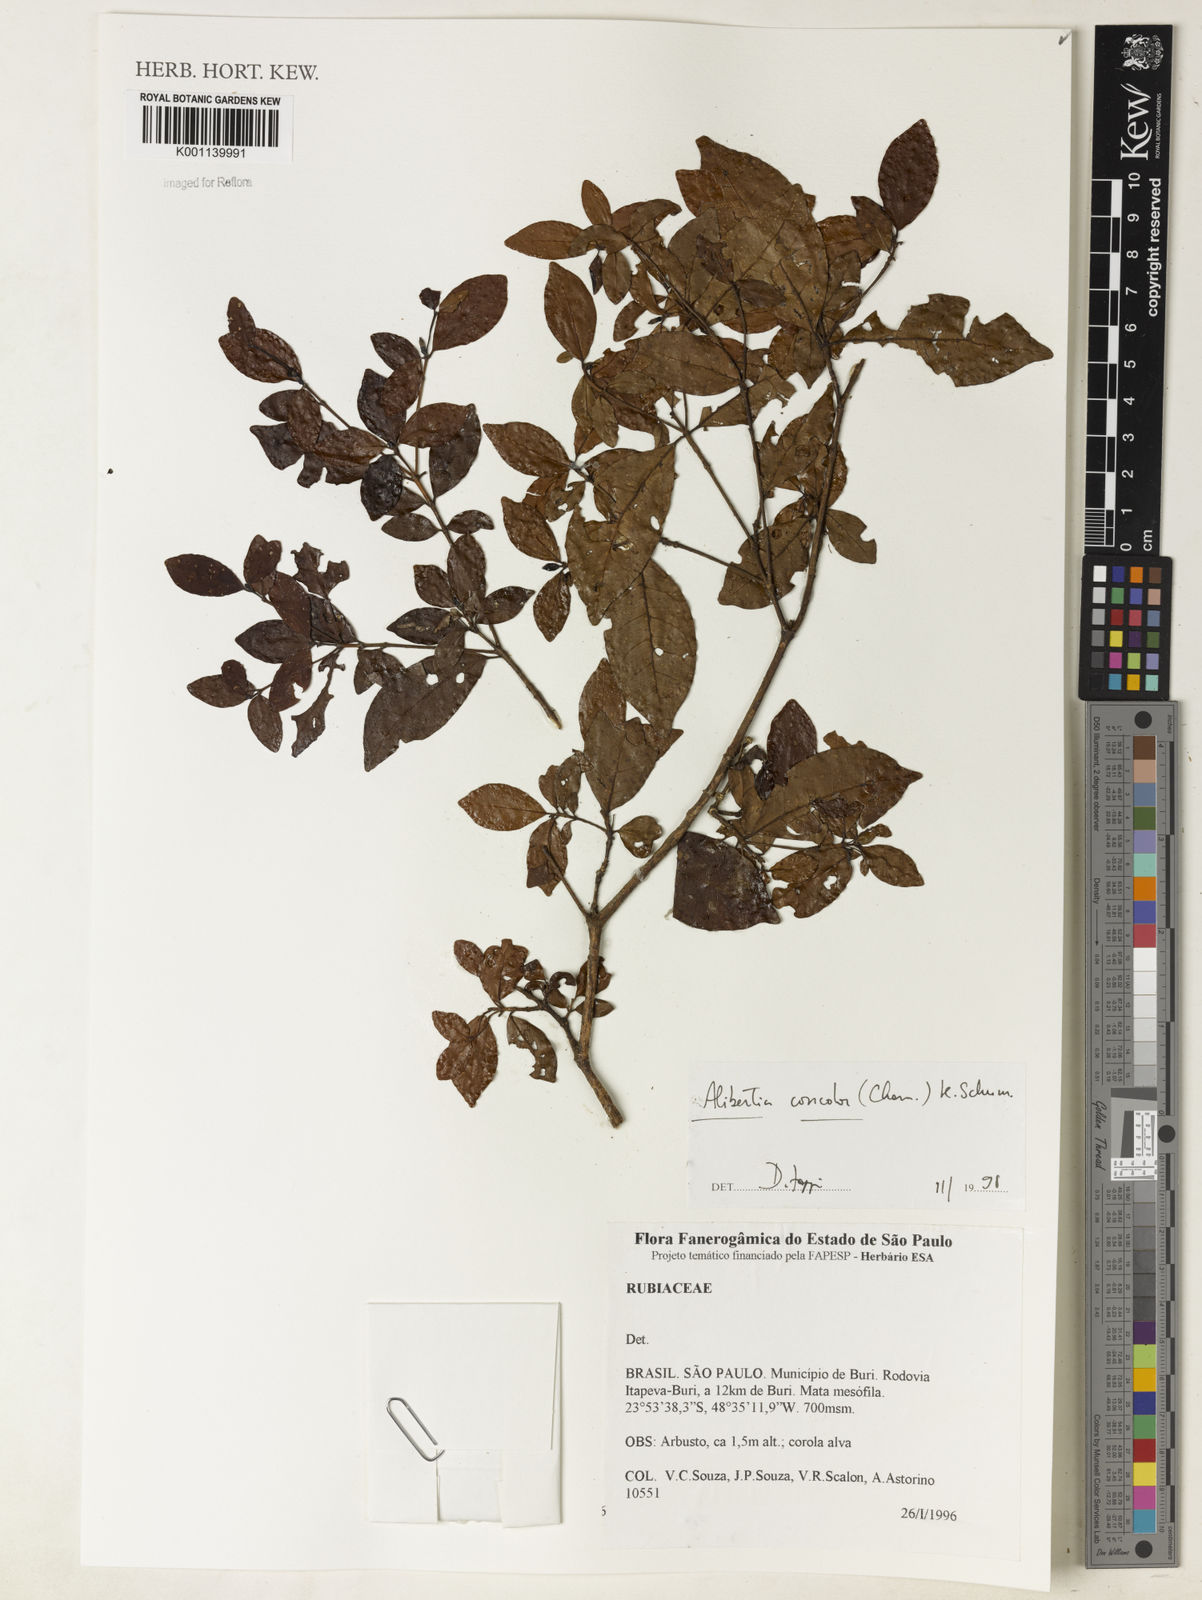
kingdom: Plantae
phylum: Tracheophyta
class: Magnoliopsida
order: Gentianales
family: Rubiaceae
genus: Cordiera
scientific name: Cordiera concolor
